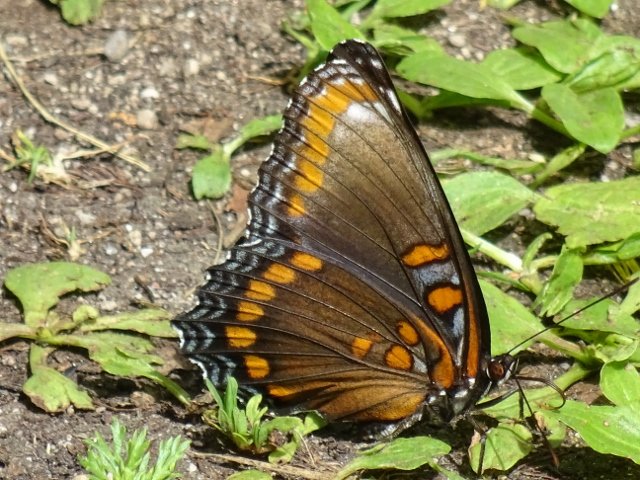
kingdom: Animalia
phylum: Arthropoda
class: Insecta
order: Lepidoptera
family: Nymphalidae
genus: Limenitis
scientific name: Limenitis astyanax
